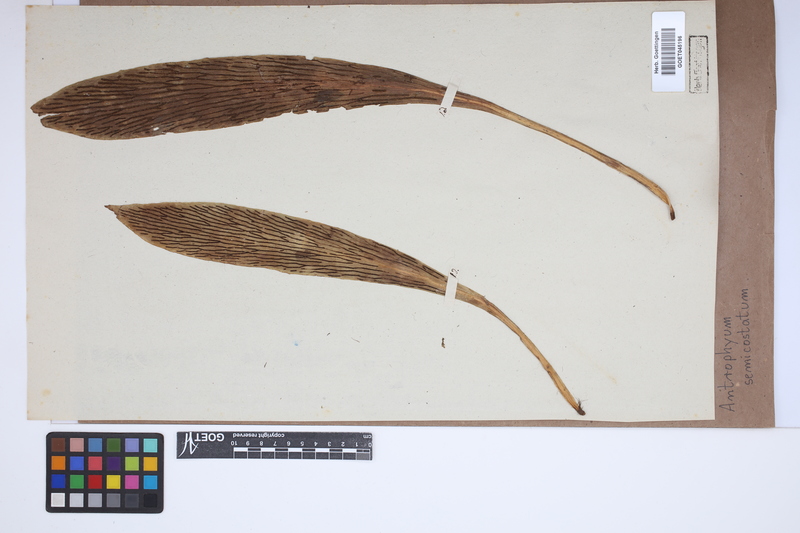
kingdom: Plantae
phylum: Tracheophyta
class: Polypodiopsida
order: Polypodiales
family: Pteridaceae
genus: Antrophyum
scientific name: Antrophyum semicostatum
